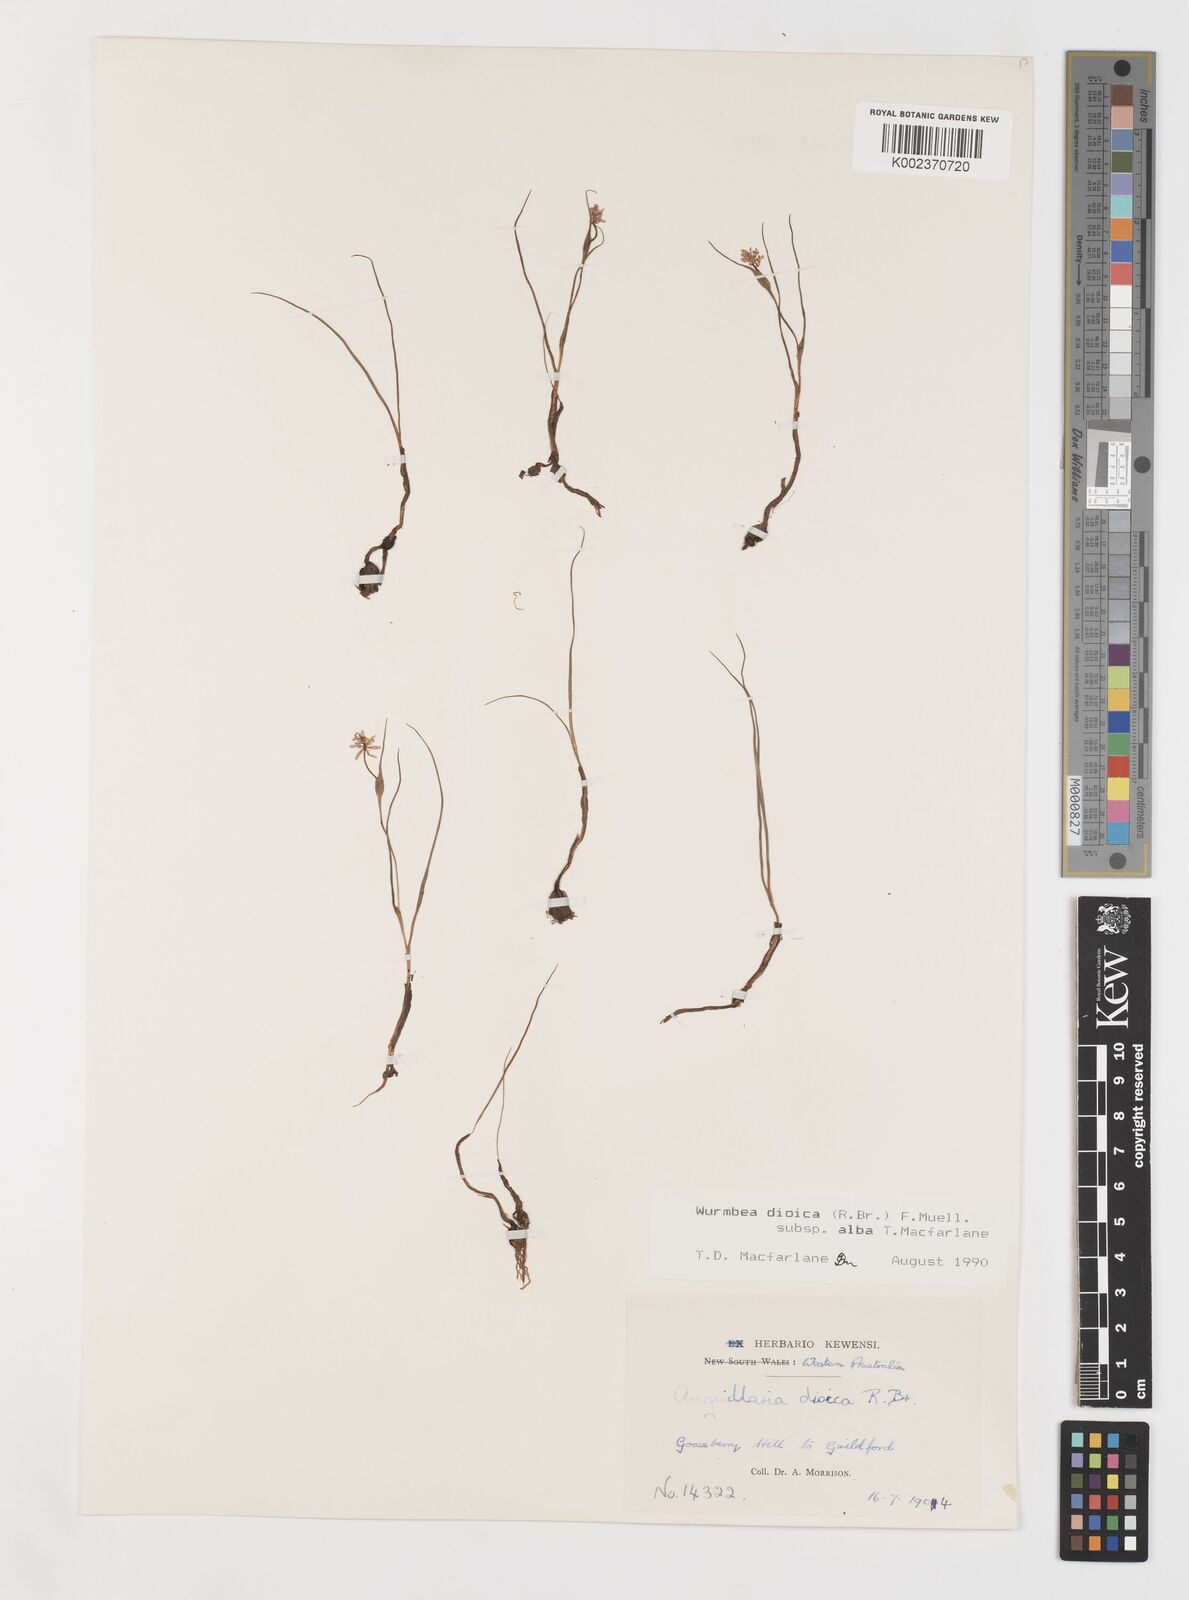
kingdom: Plantae
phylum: Tracheophyta
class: Liliopsida
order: Liliales
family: Colchicaceae
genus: Wurmbea
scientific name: Wurmbea dioica
